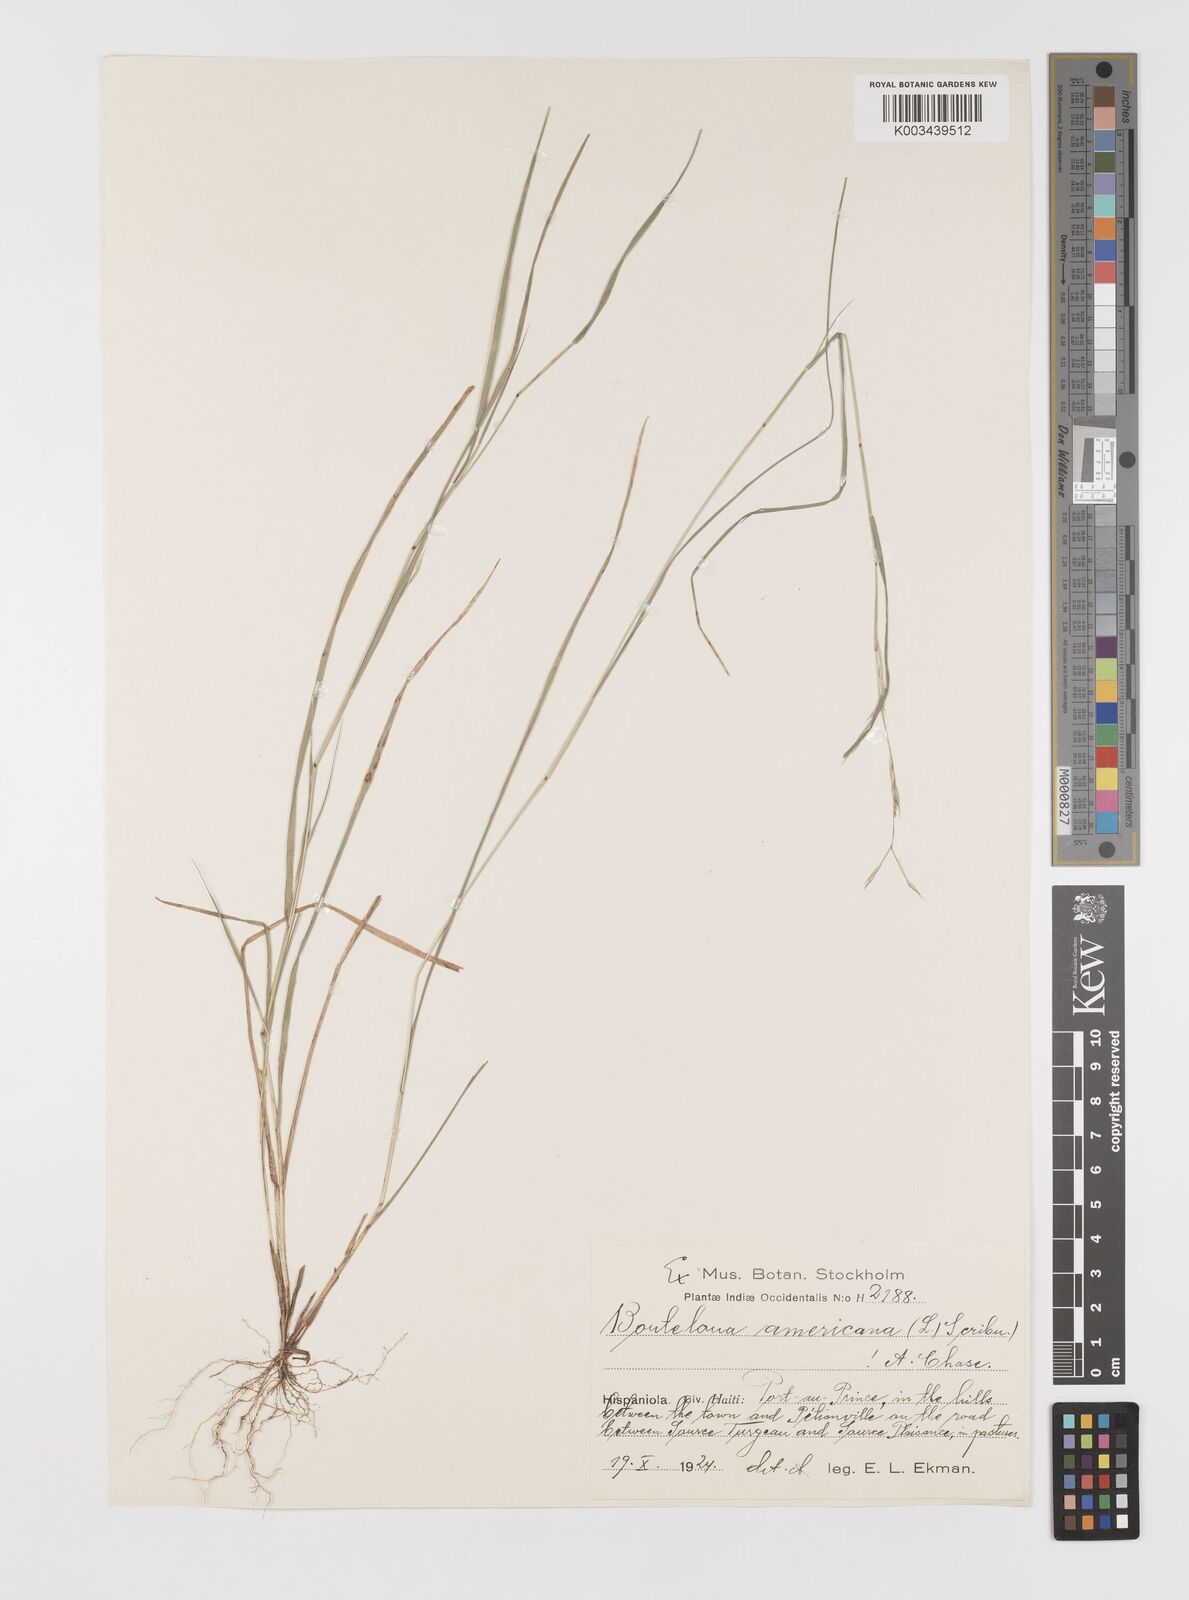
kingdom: Plantae
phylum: Tracheophyta
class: Liliopsida
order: Poales
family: Poaceae
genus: Bouteloua
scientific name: Bouteloua americana
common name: Mule grass
